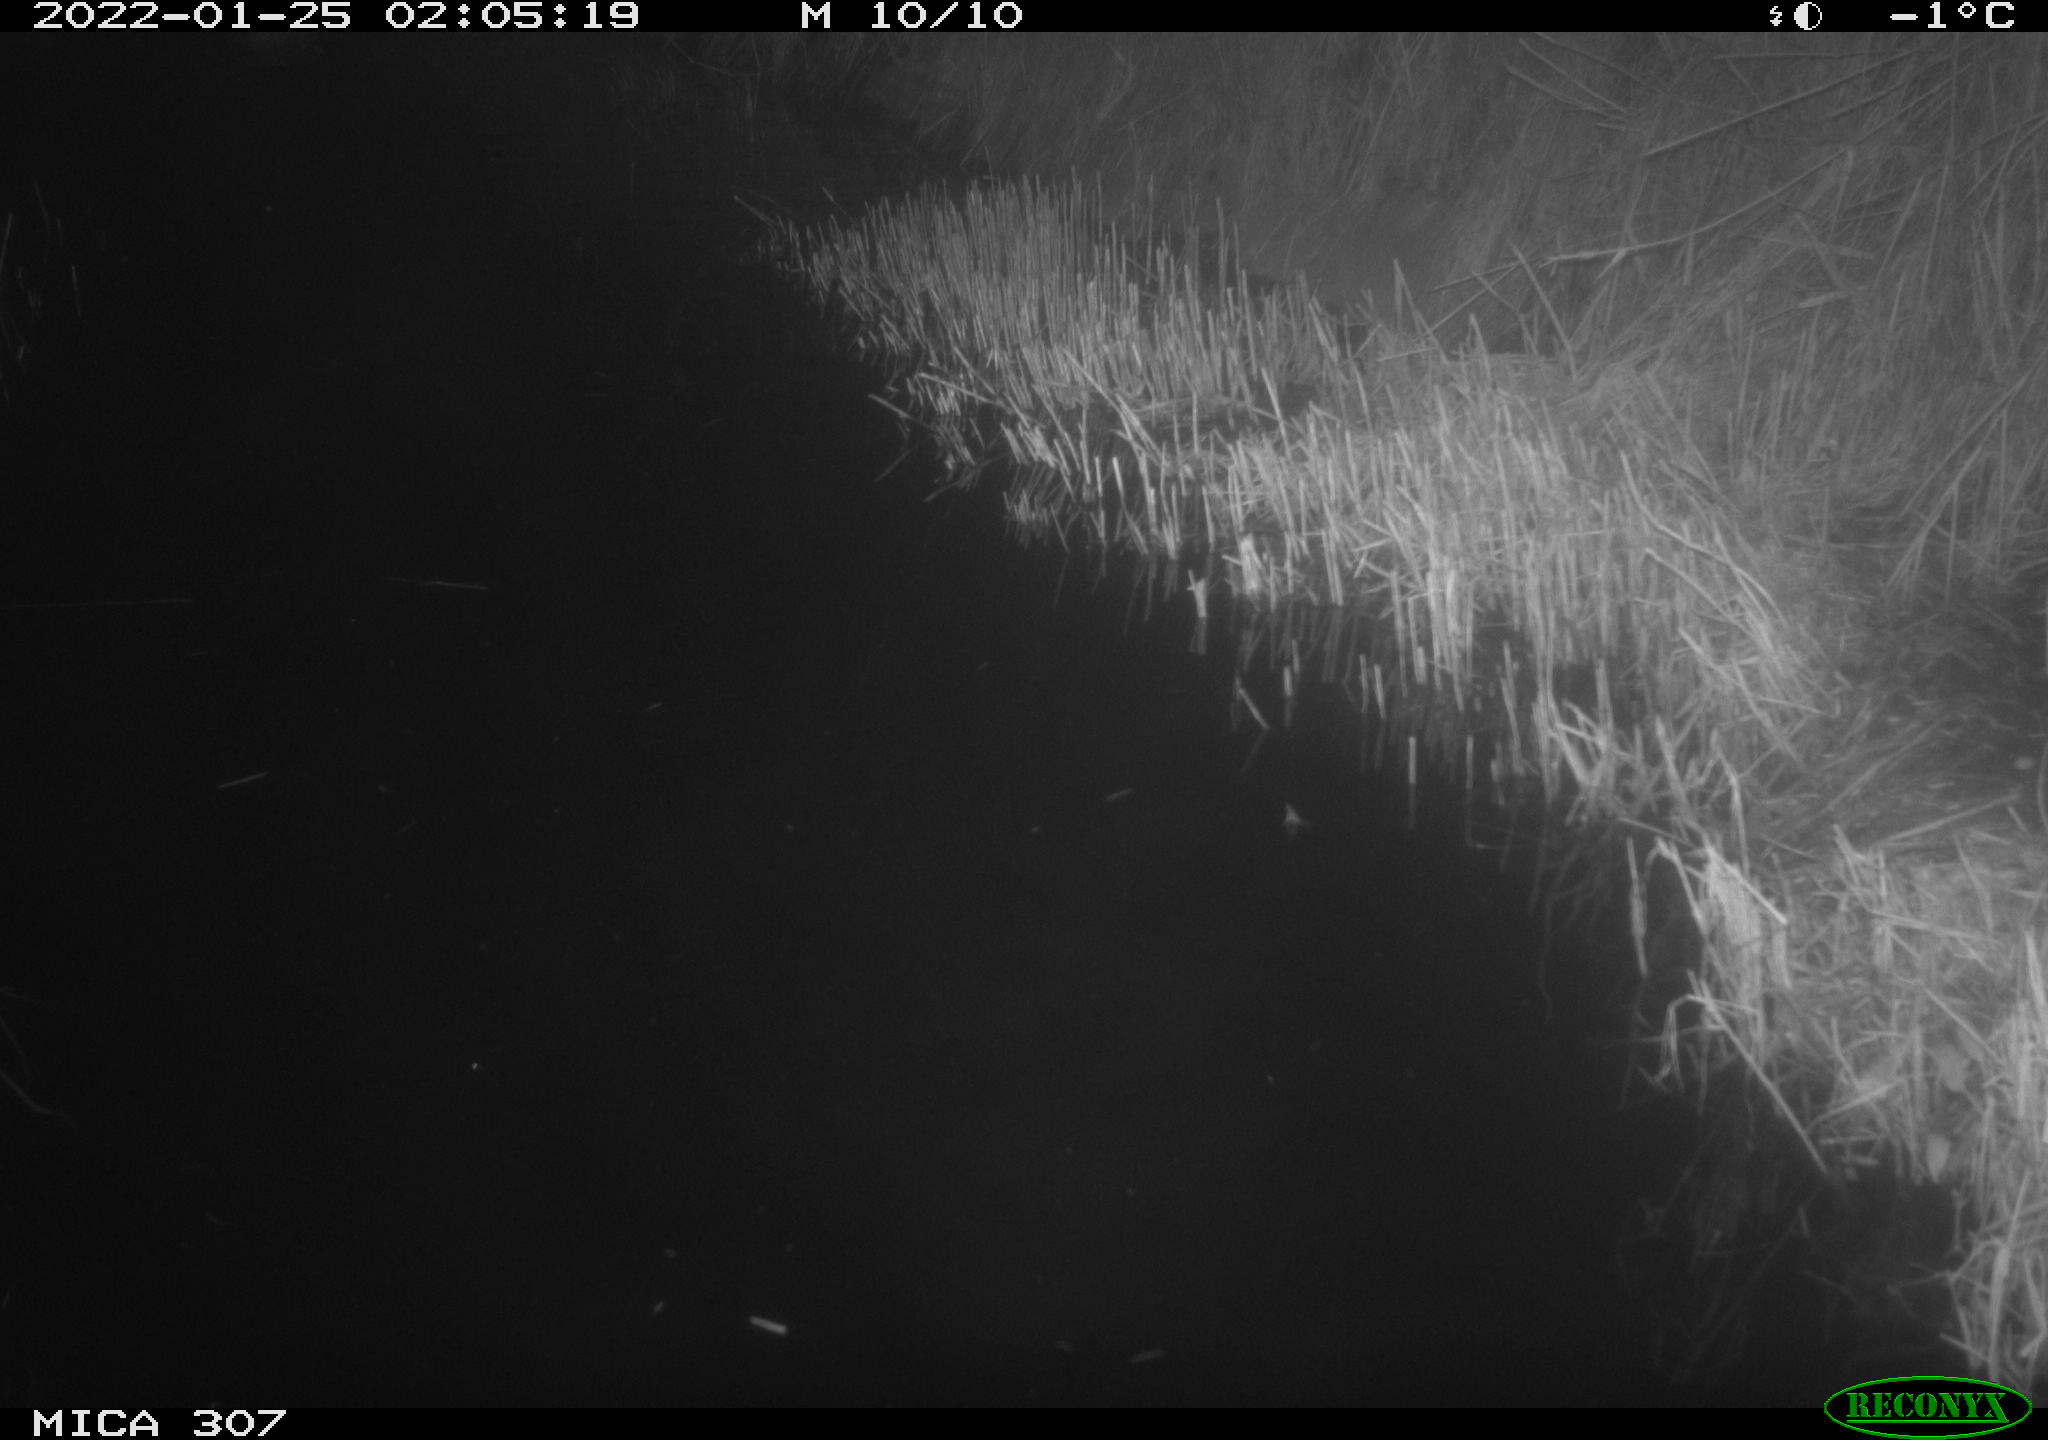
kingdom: Animalia
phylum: Chordata
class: Aves
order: Anseriformes
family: Anatidae
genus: Anas
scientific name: Anas
